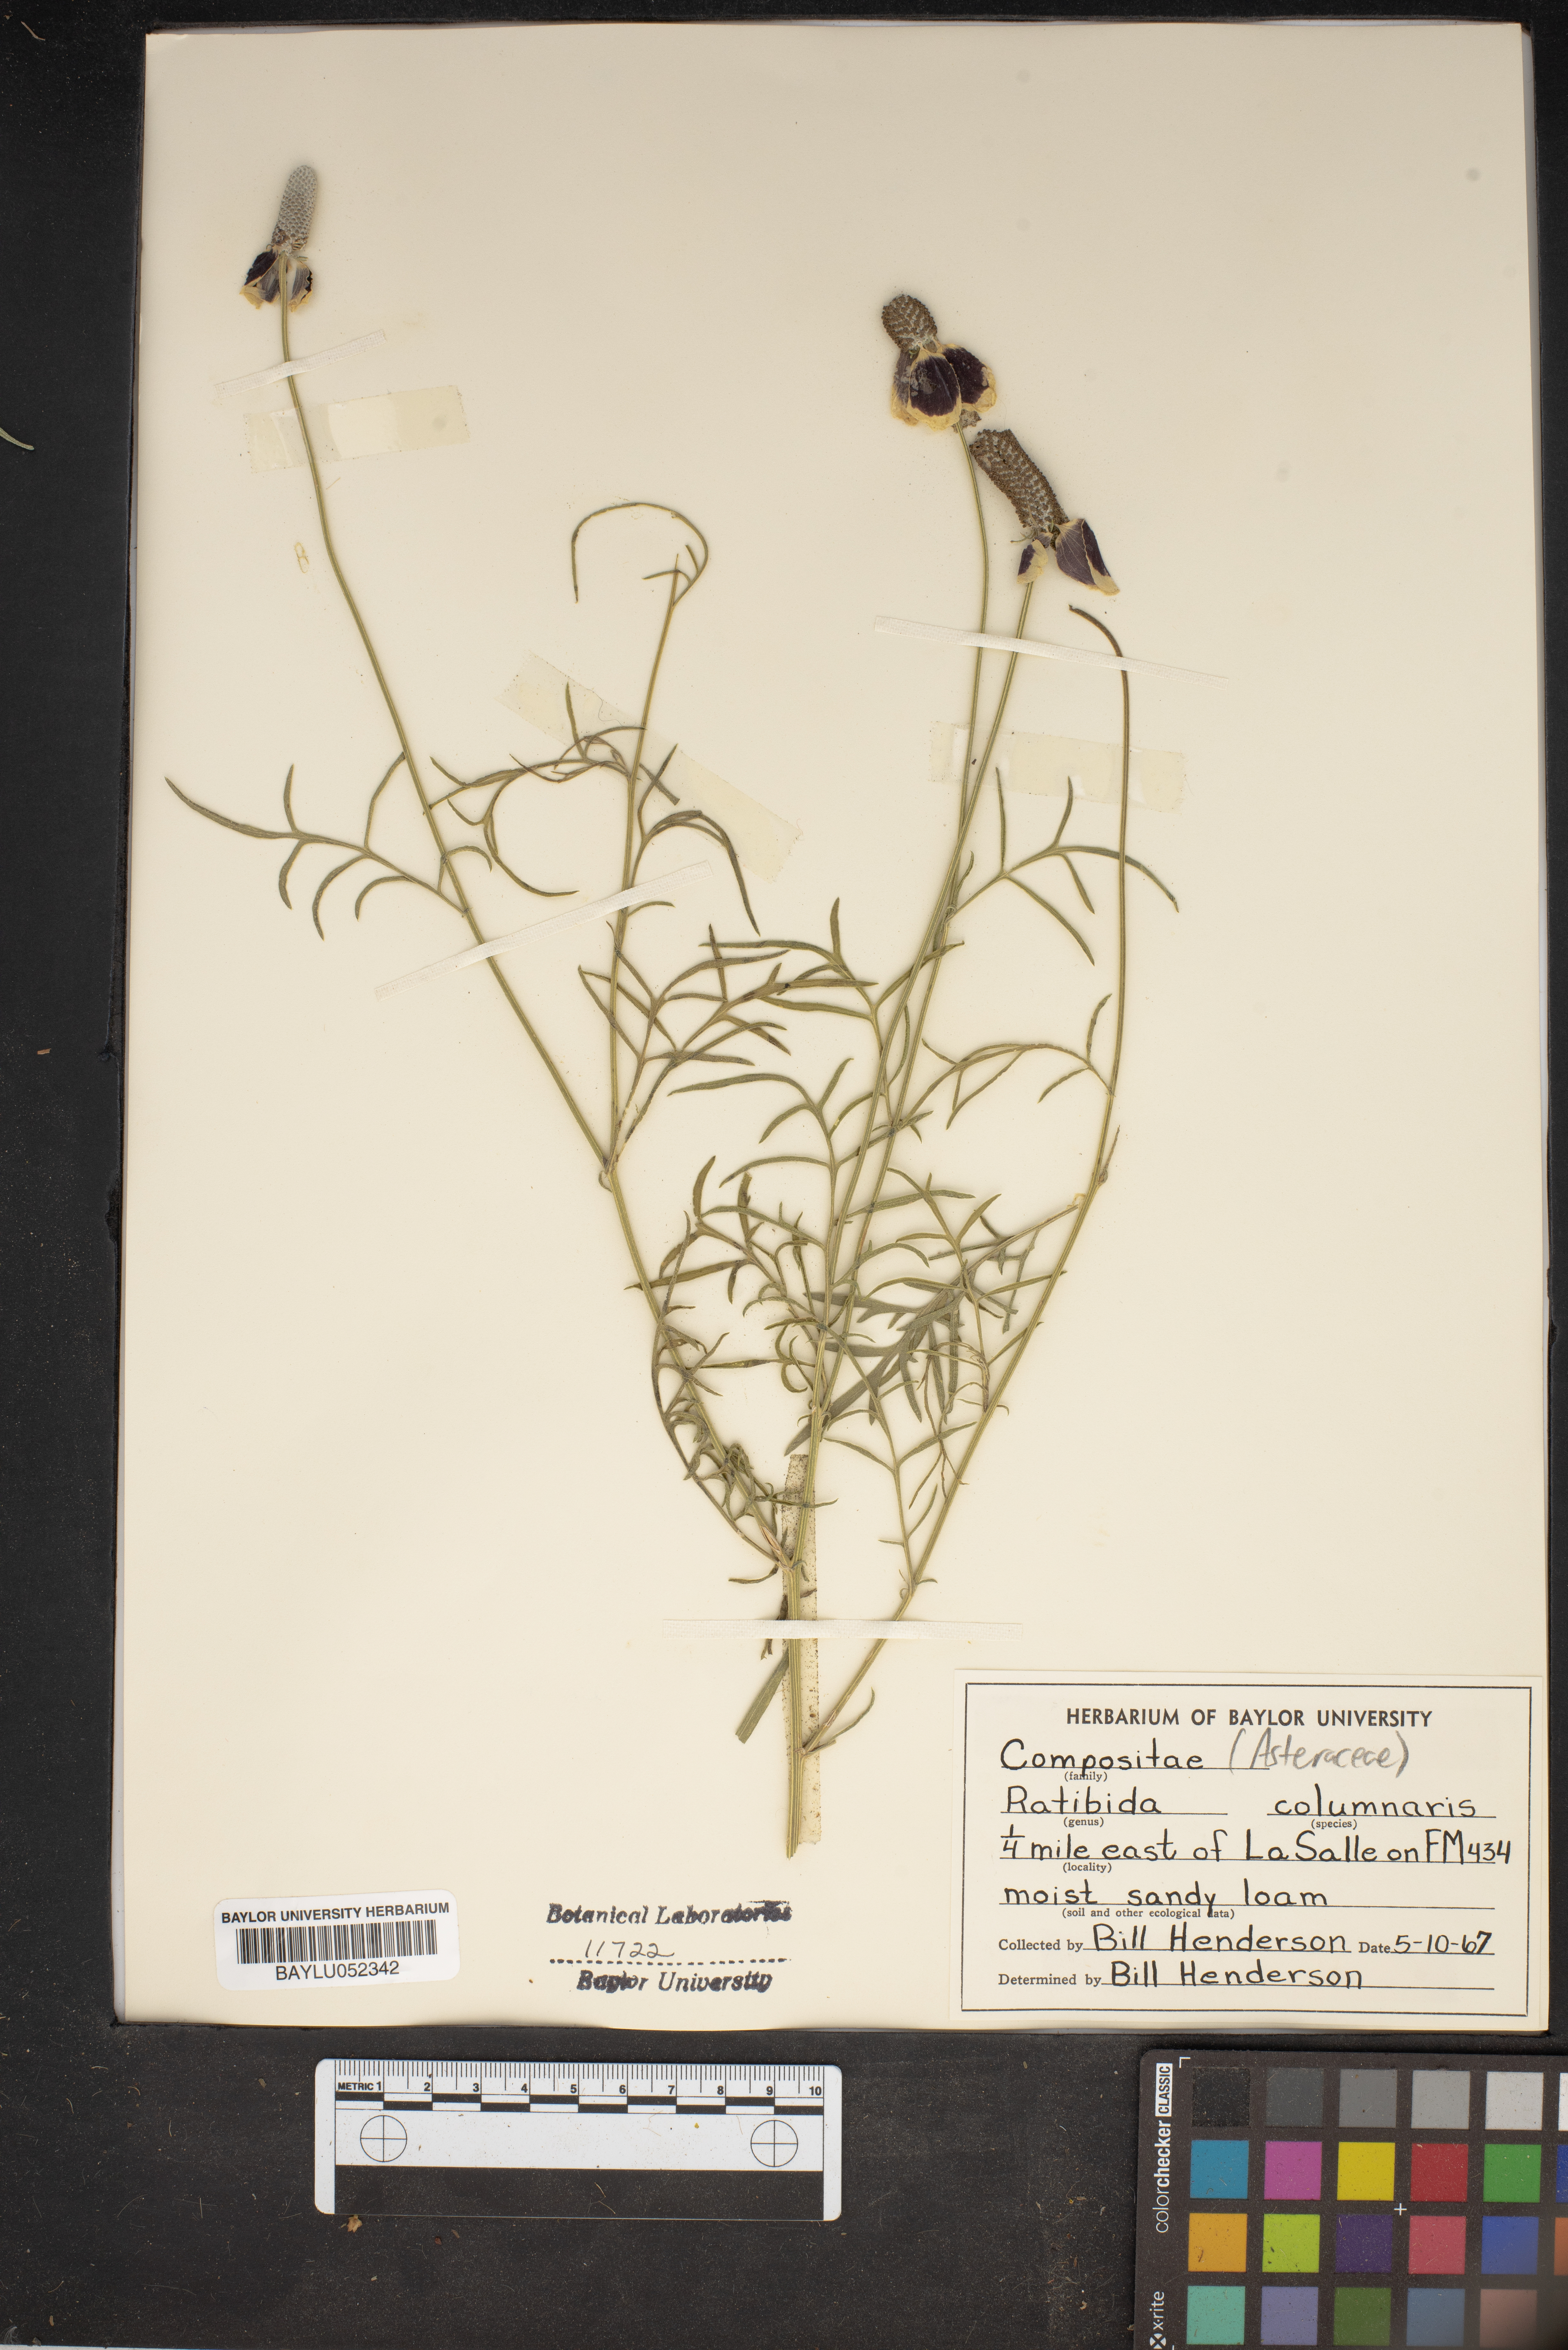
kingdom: Plantae
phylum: Tracheophyta
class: Magnoliopsida
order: Asterales
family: Asteraceae
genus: Ratibida
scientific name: Ratibida columnifera
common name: Prairie coneflower
